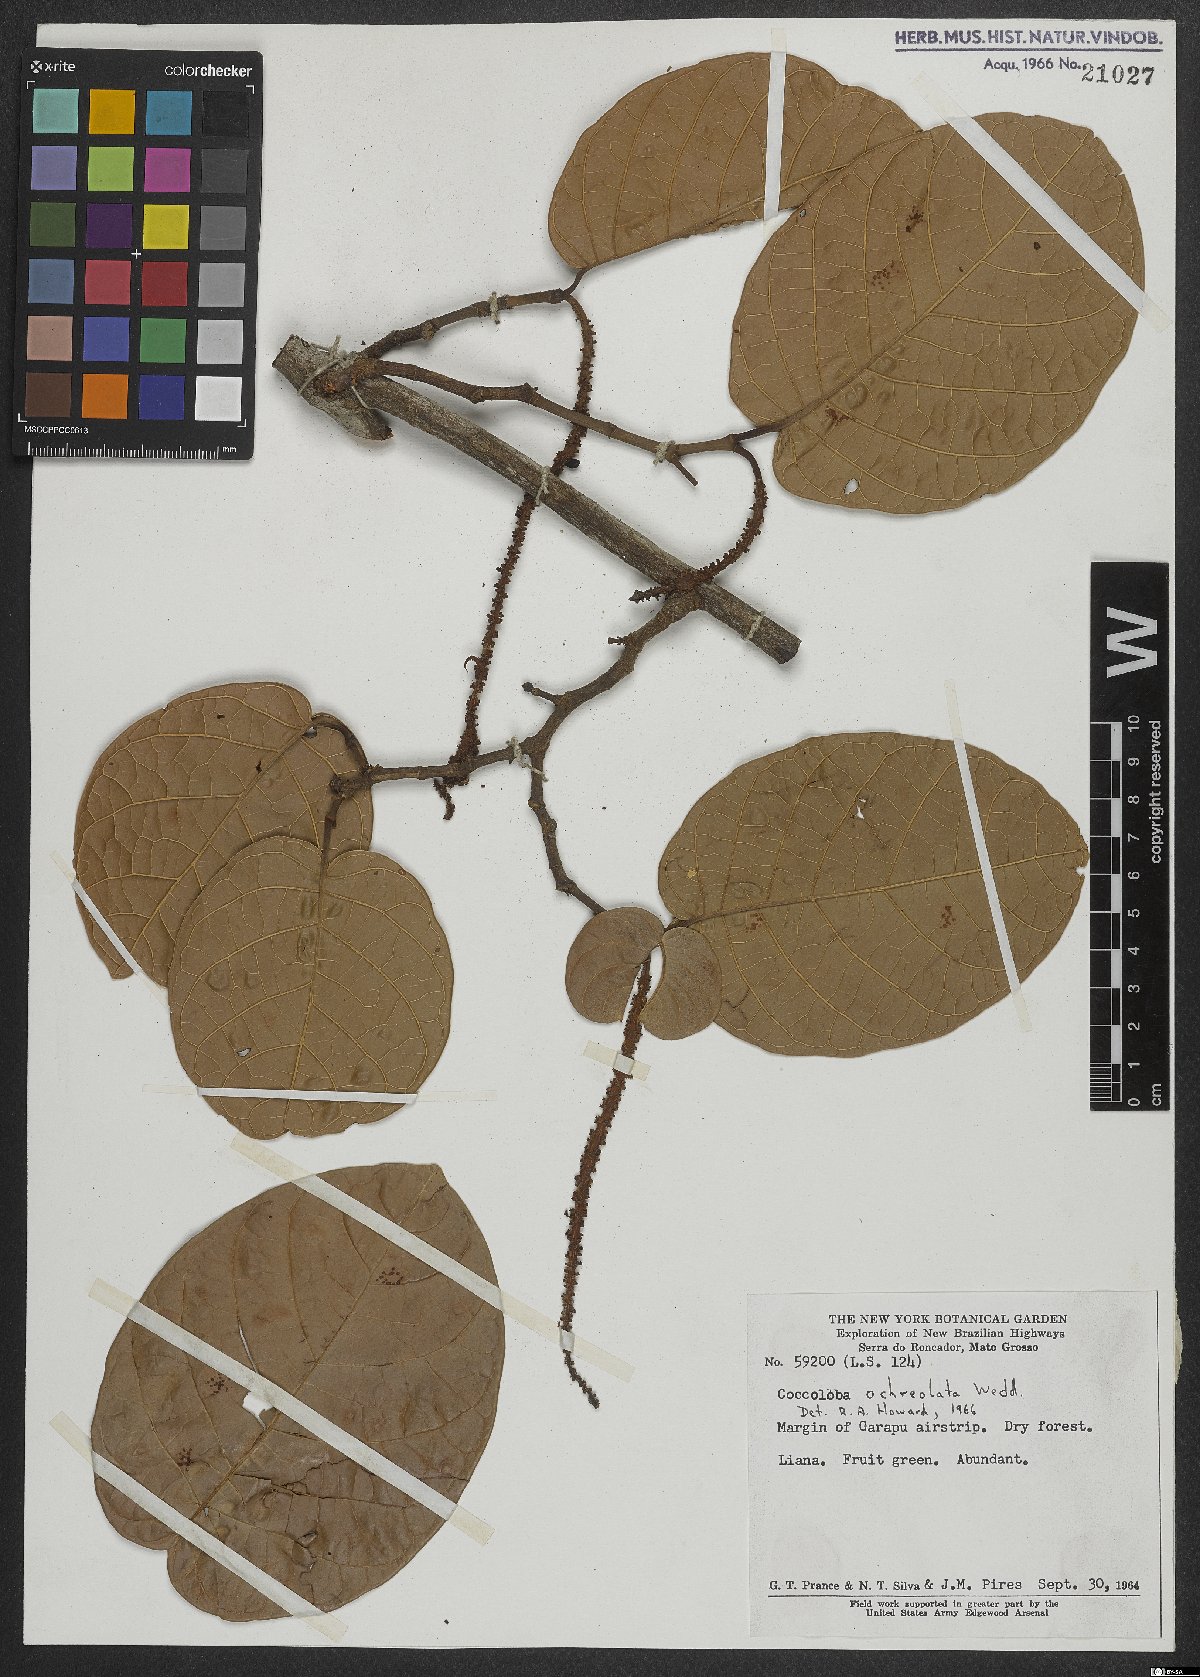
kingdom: Plantae
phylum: Tracheophyta
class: Magnoliopsida
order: Caryophyllales
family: Polygonaceae
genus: Coccoloba
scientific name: Coccoloba ochreolata
